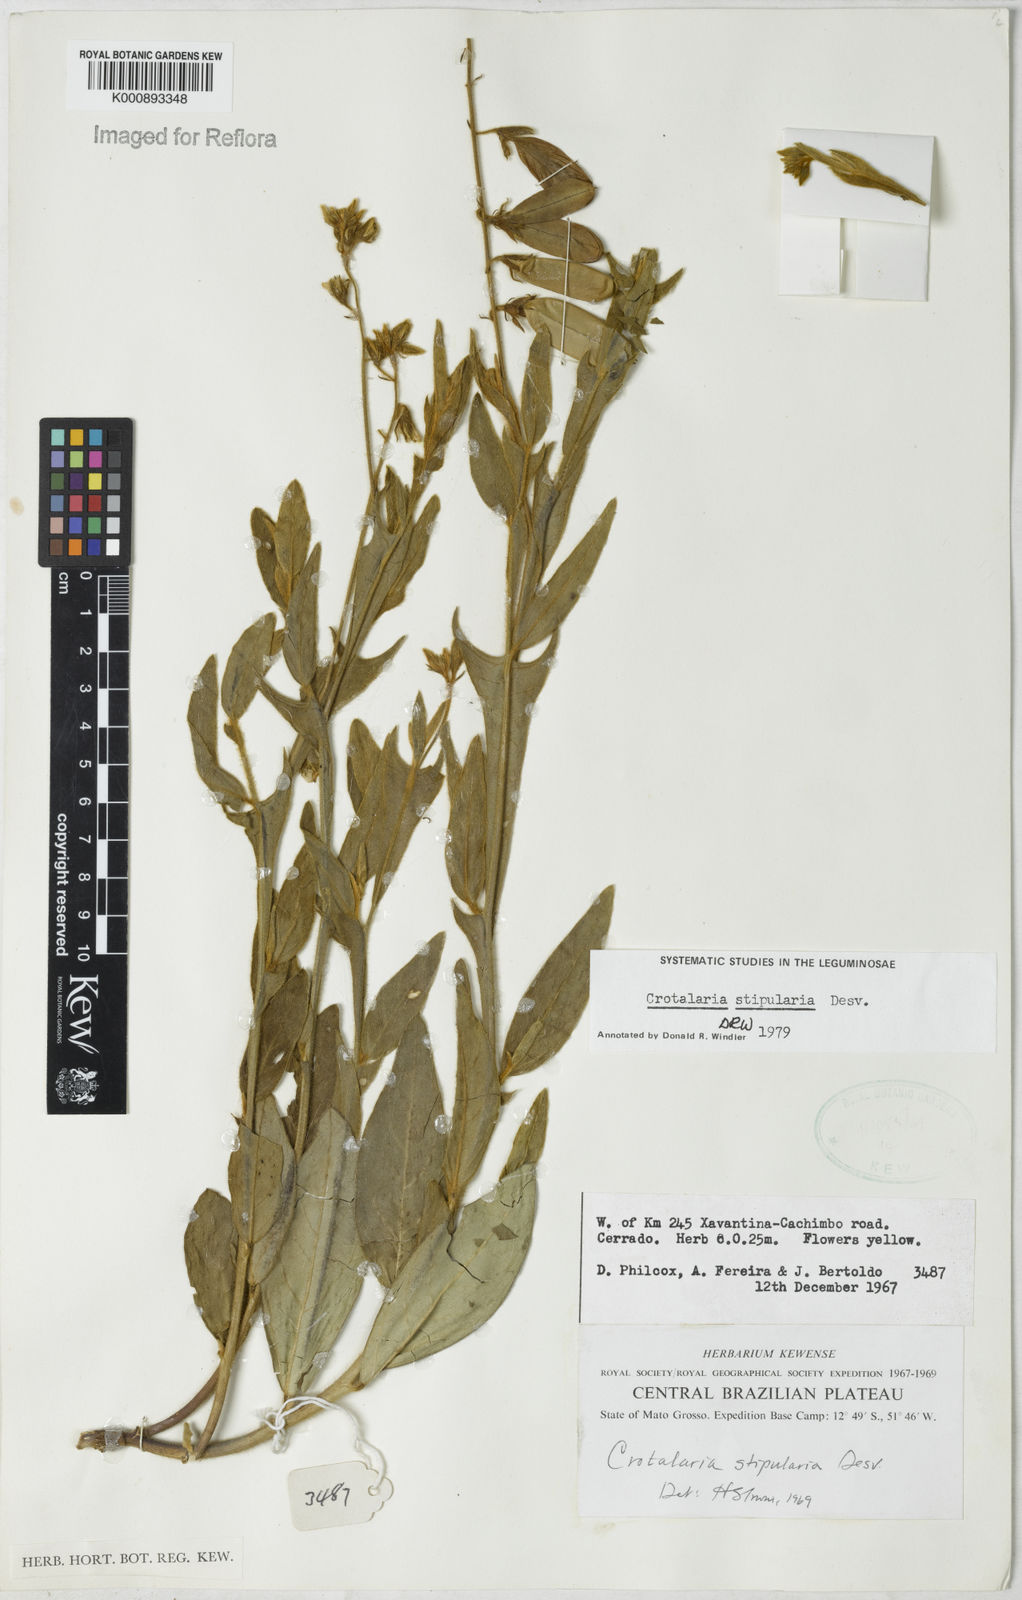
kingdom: Plantae
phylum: Tracheophyta
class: Magnoliopsida
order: Fabales
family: Fabaceae
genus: Crotalaria
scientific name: Crotalaria stipularia
